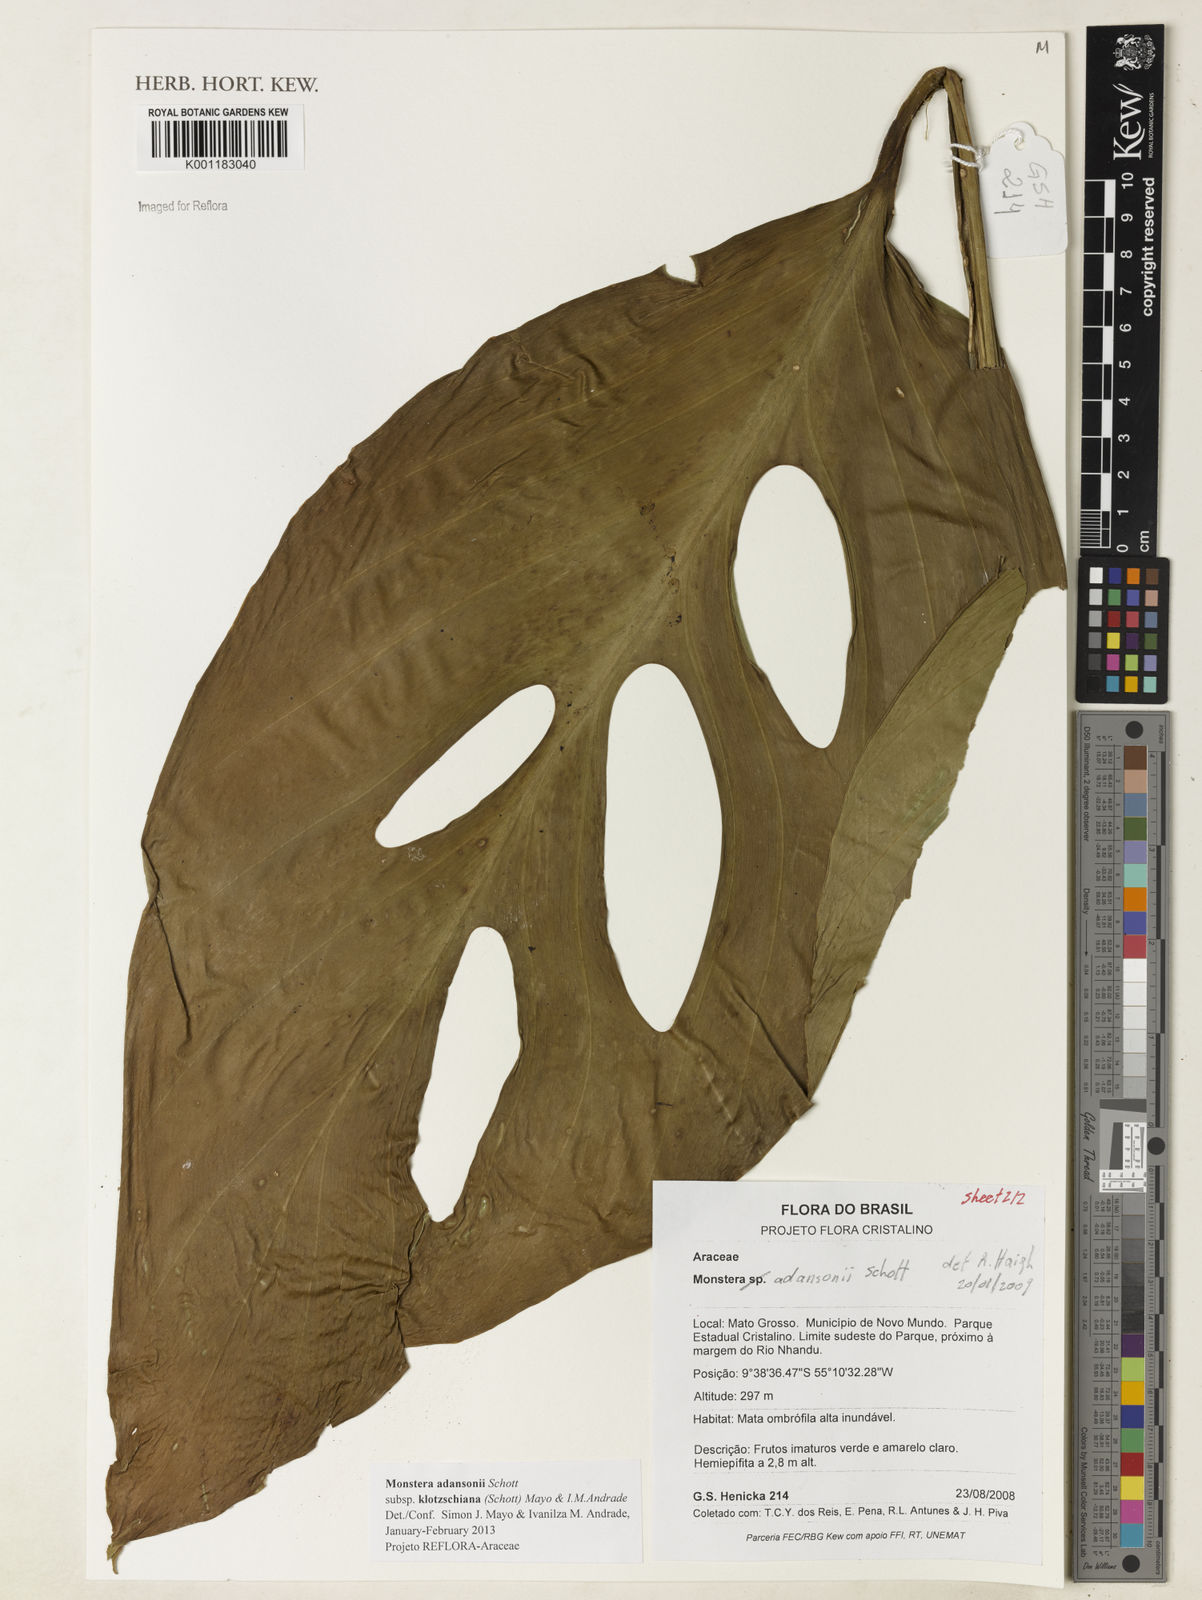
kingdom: Plantae
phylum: Tracheophyta
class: Liliopsida
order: Alismatales
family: Araceae
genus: Monstera
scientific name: Monstera adansonii
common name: Tarovine
